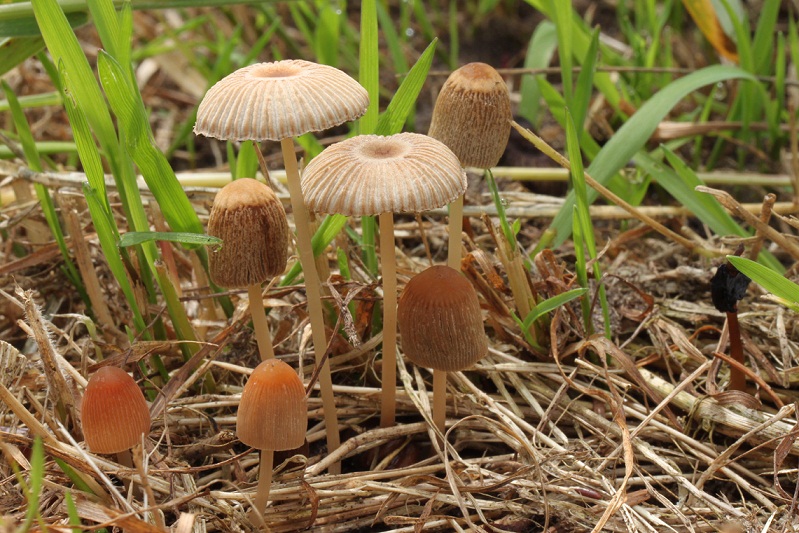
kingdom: Fungi
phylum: Basidiomycota
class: Agaricomycetes
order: Agaricales
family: Psathyrellaceae
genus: Parasola
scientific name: Parasola schroeteri
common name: bredsporet hjulhat
